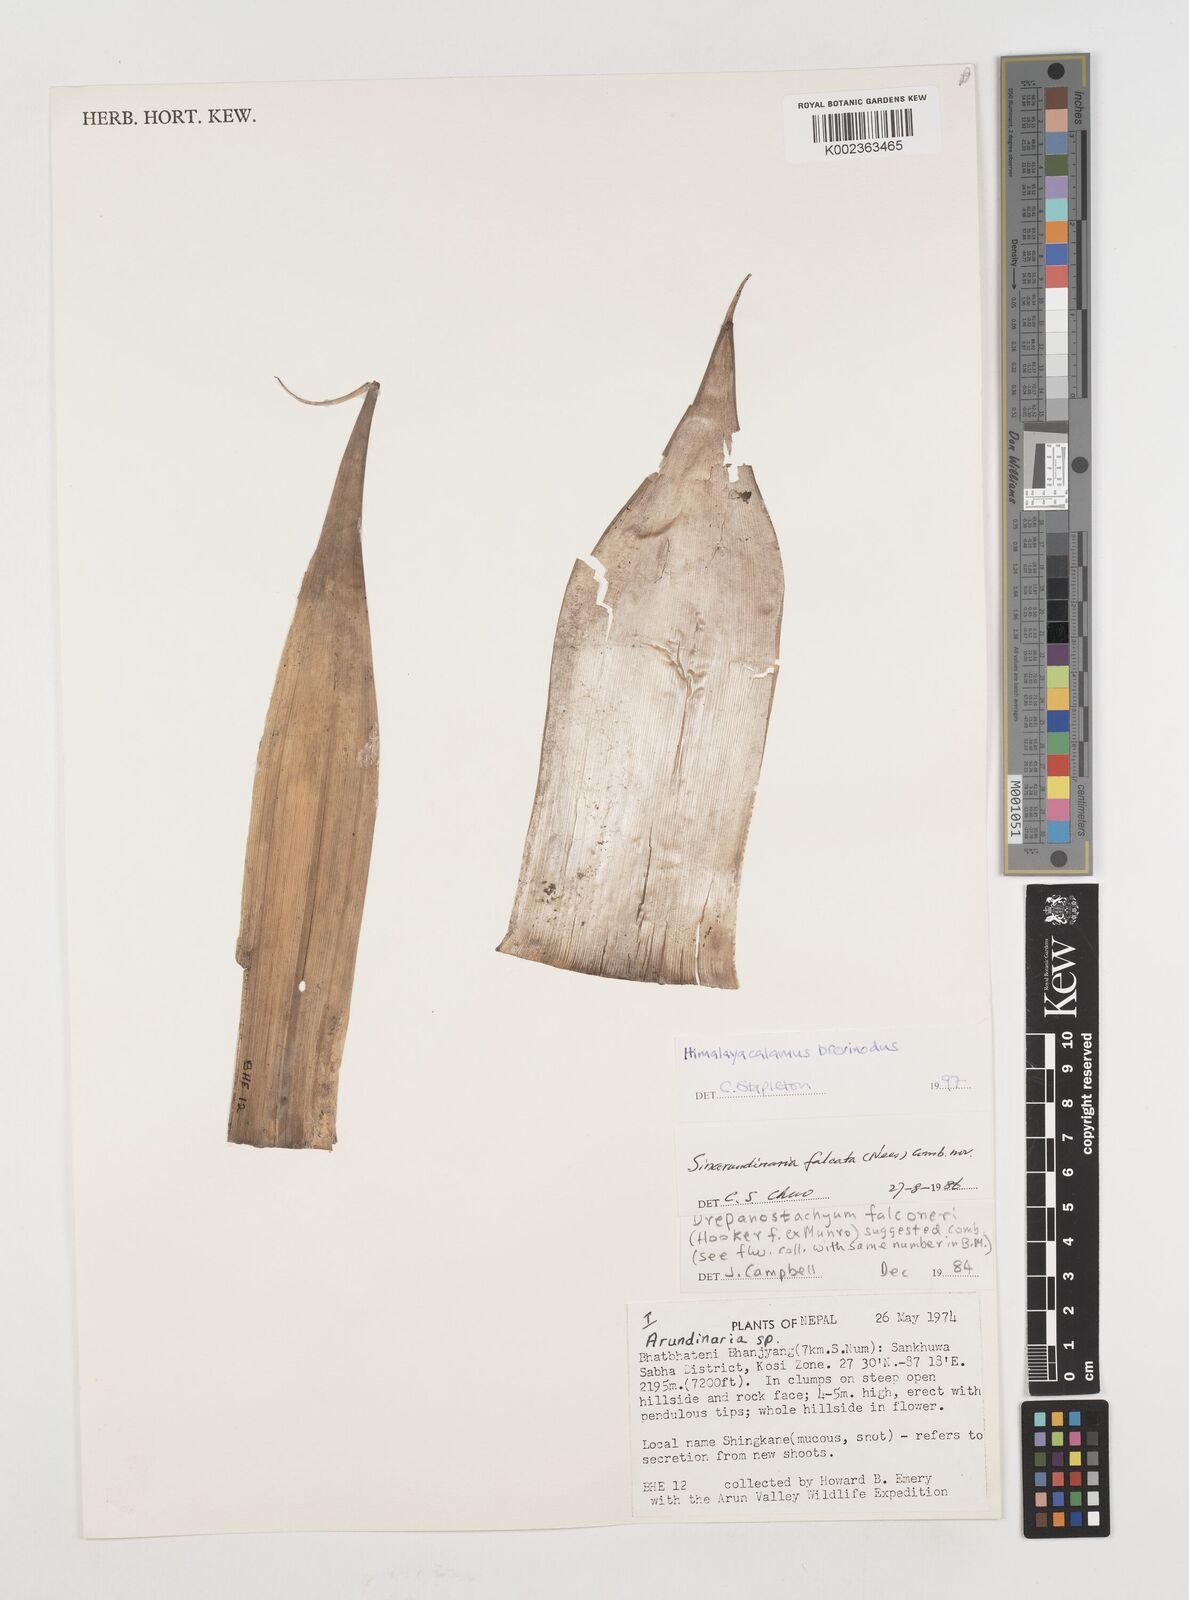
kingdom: Plantae
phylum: Tracheophyta
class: Liliopsida
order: Poales
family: Poaceae
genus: Himalayacalamus
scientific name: Himalayacalamus brevinodus
